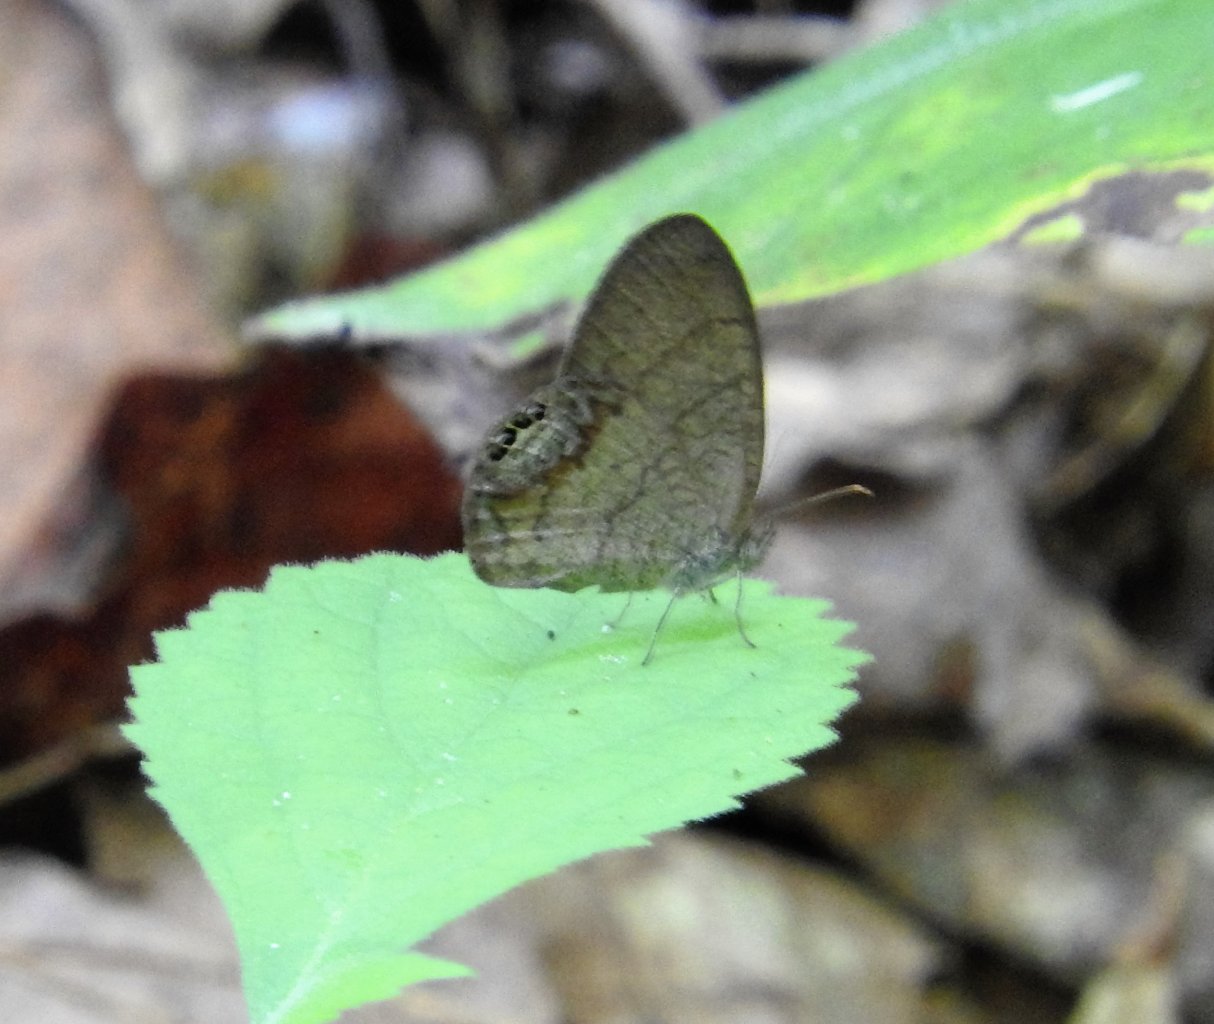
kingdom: Animalia
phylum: Arthropoda
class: Insecta
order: Lepidoptera
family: Nymphalidae
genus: Euptychia
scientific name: Euptychia cornelius
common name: Gemmed Satyr
